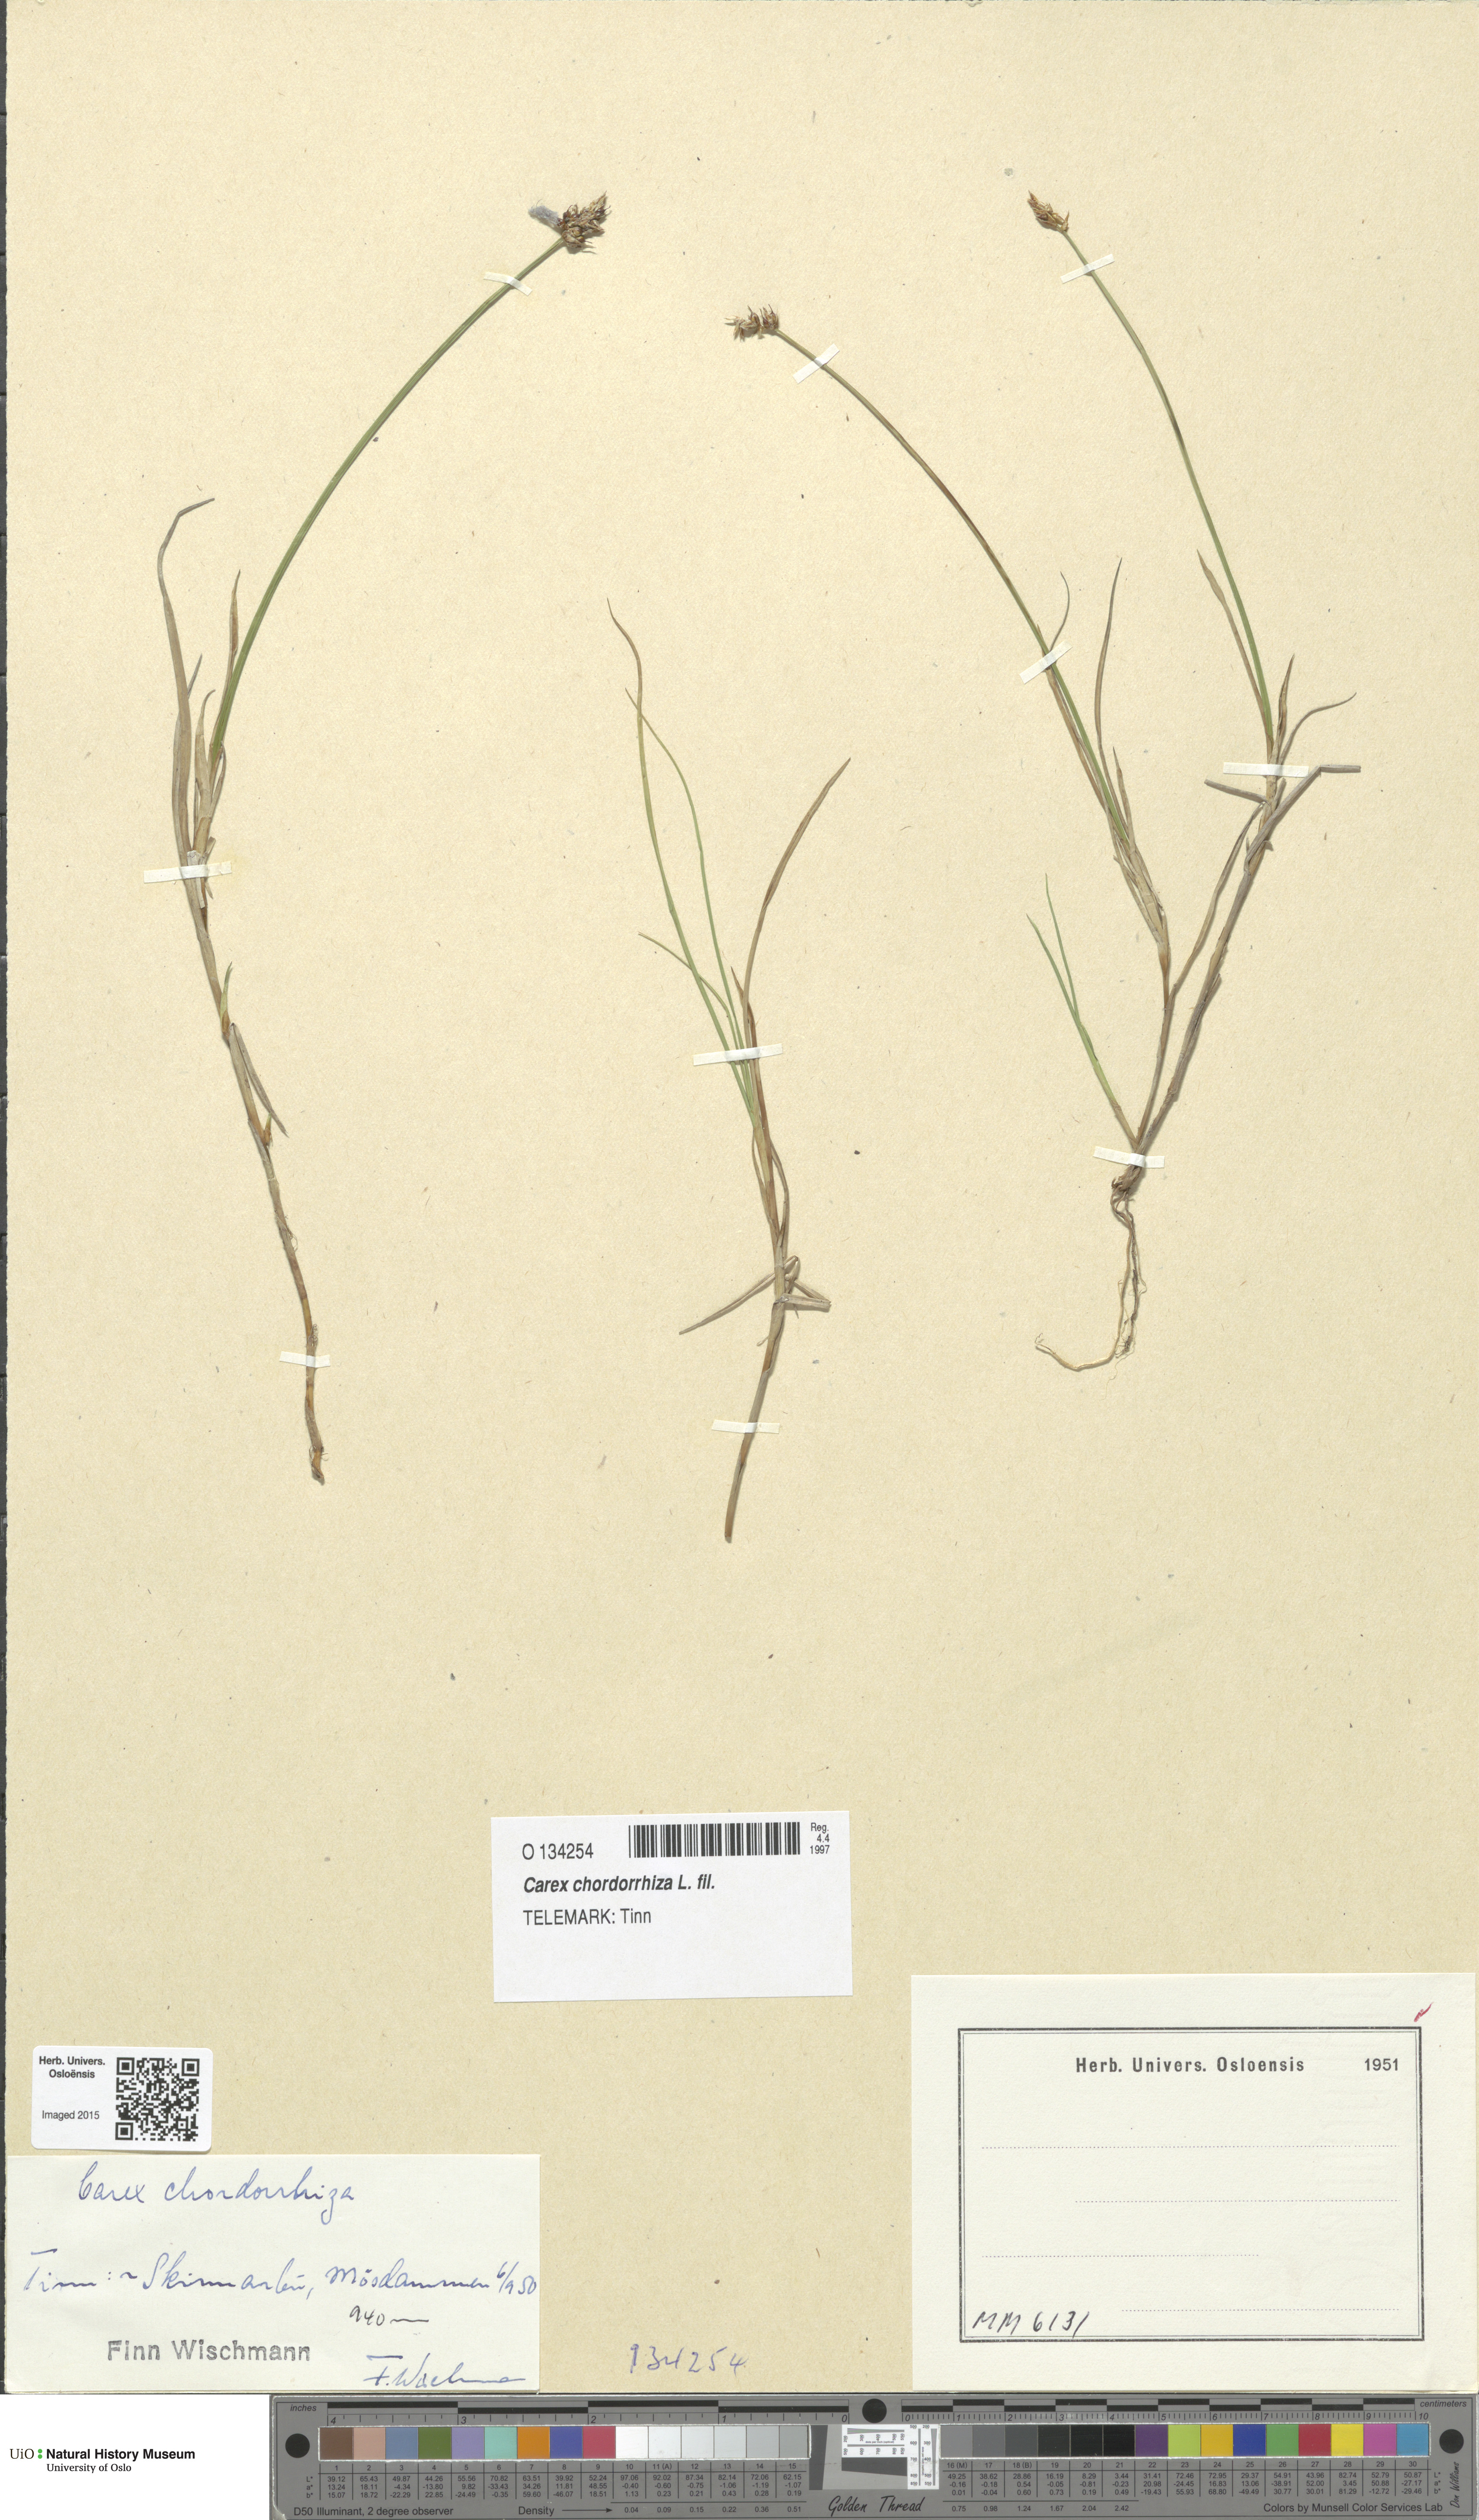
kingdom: Plantae
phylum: Tracheophyta
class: Liliopsida
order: Poales
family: Cyperaceae
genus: Carex
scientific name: Carex chordorrhiza
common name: String sedge
